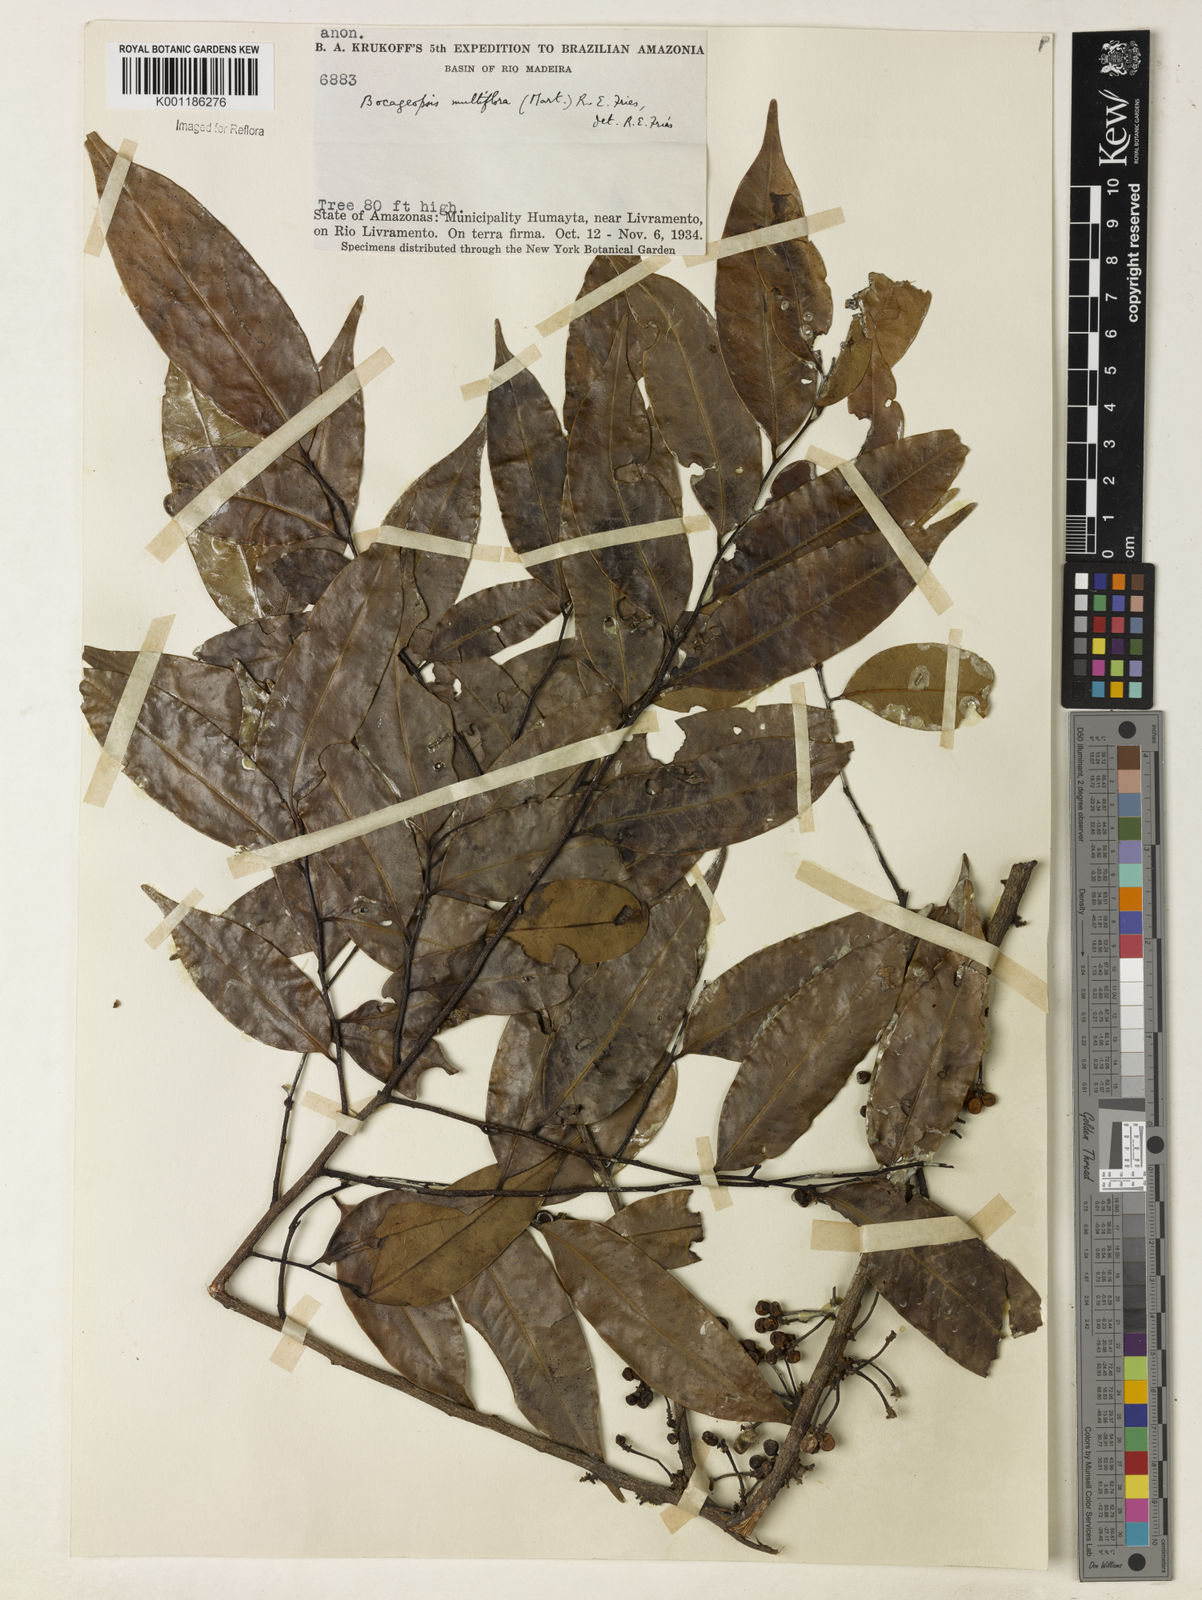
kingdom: Plantae
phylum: Tracheophyta
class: Magnoliopsida
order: Magnoliales
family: Annonaceae
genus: Bocageopsis
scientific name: Bocageopsis multiflora
